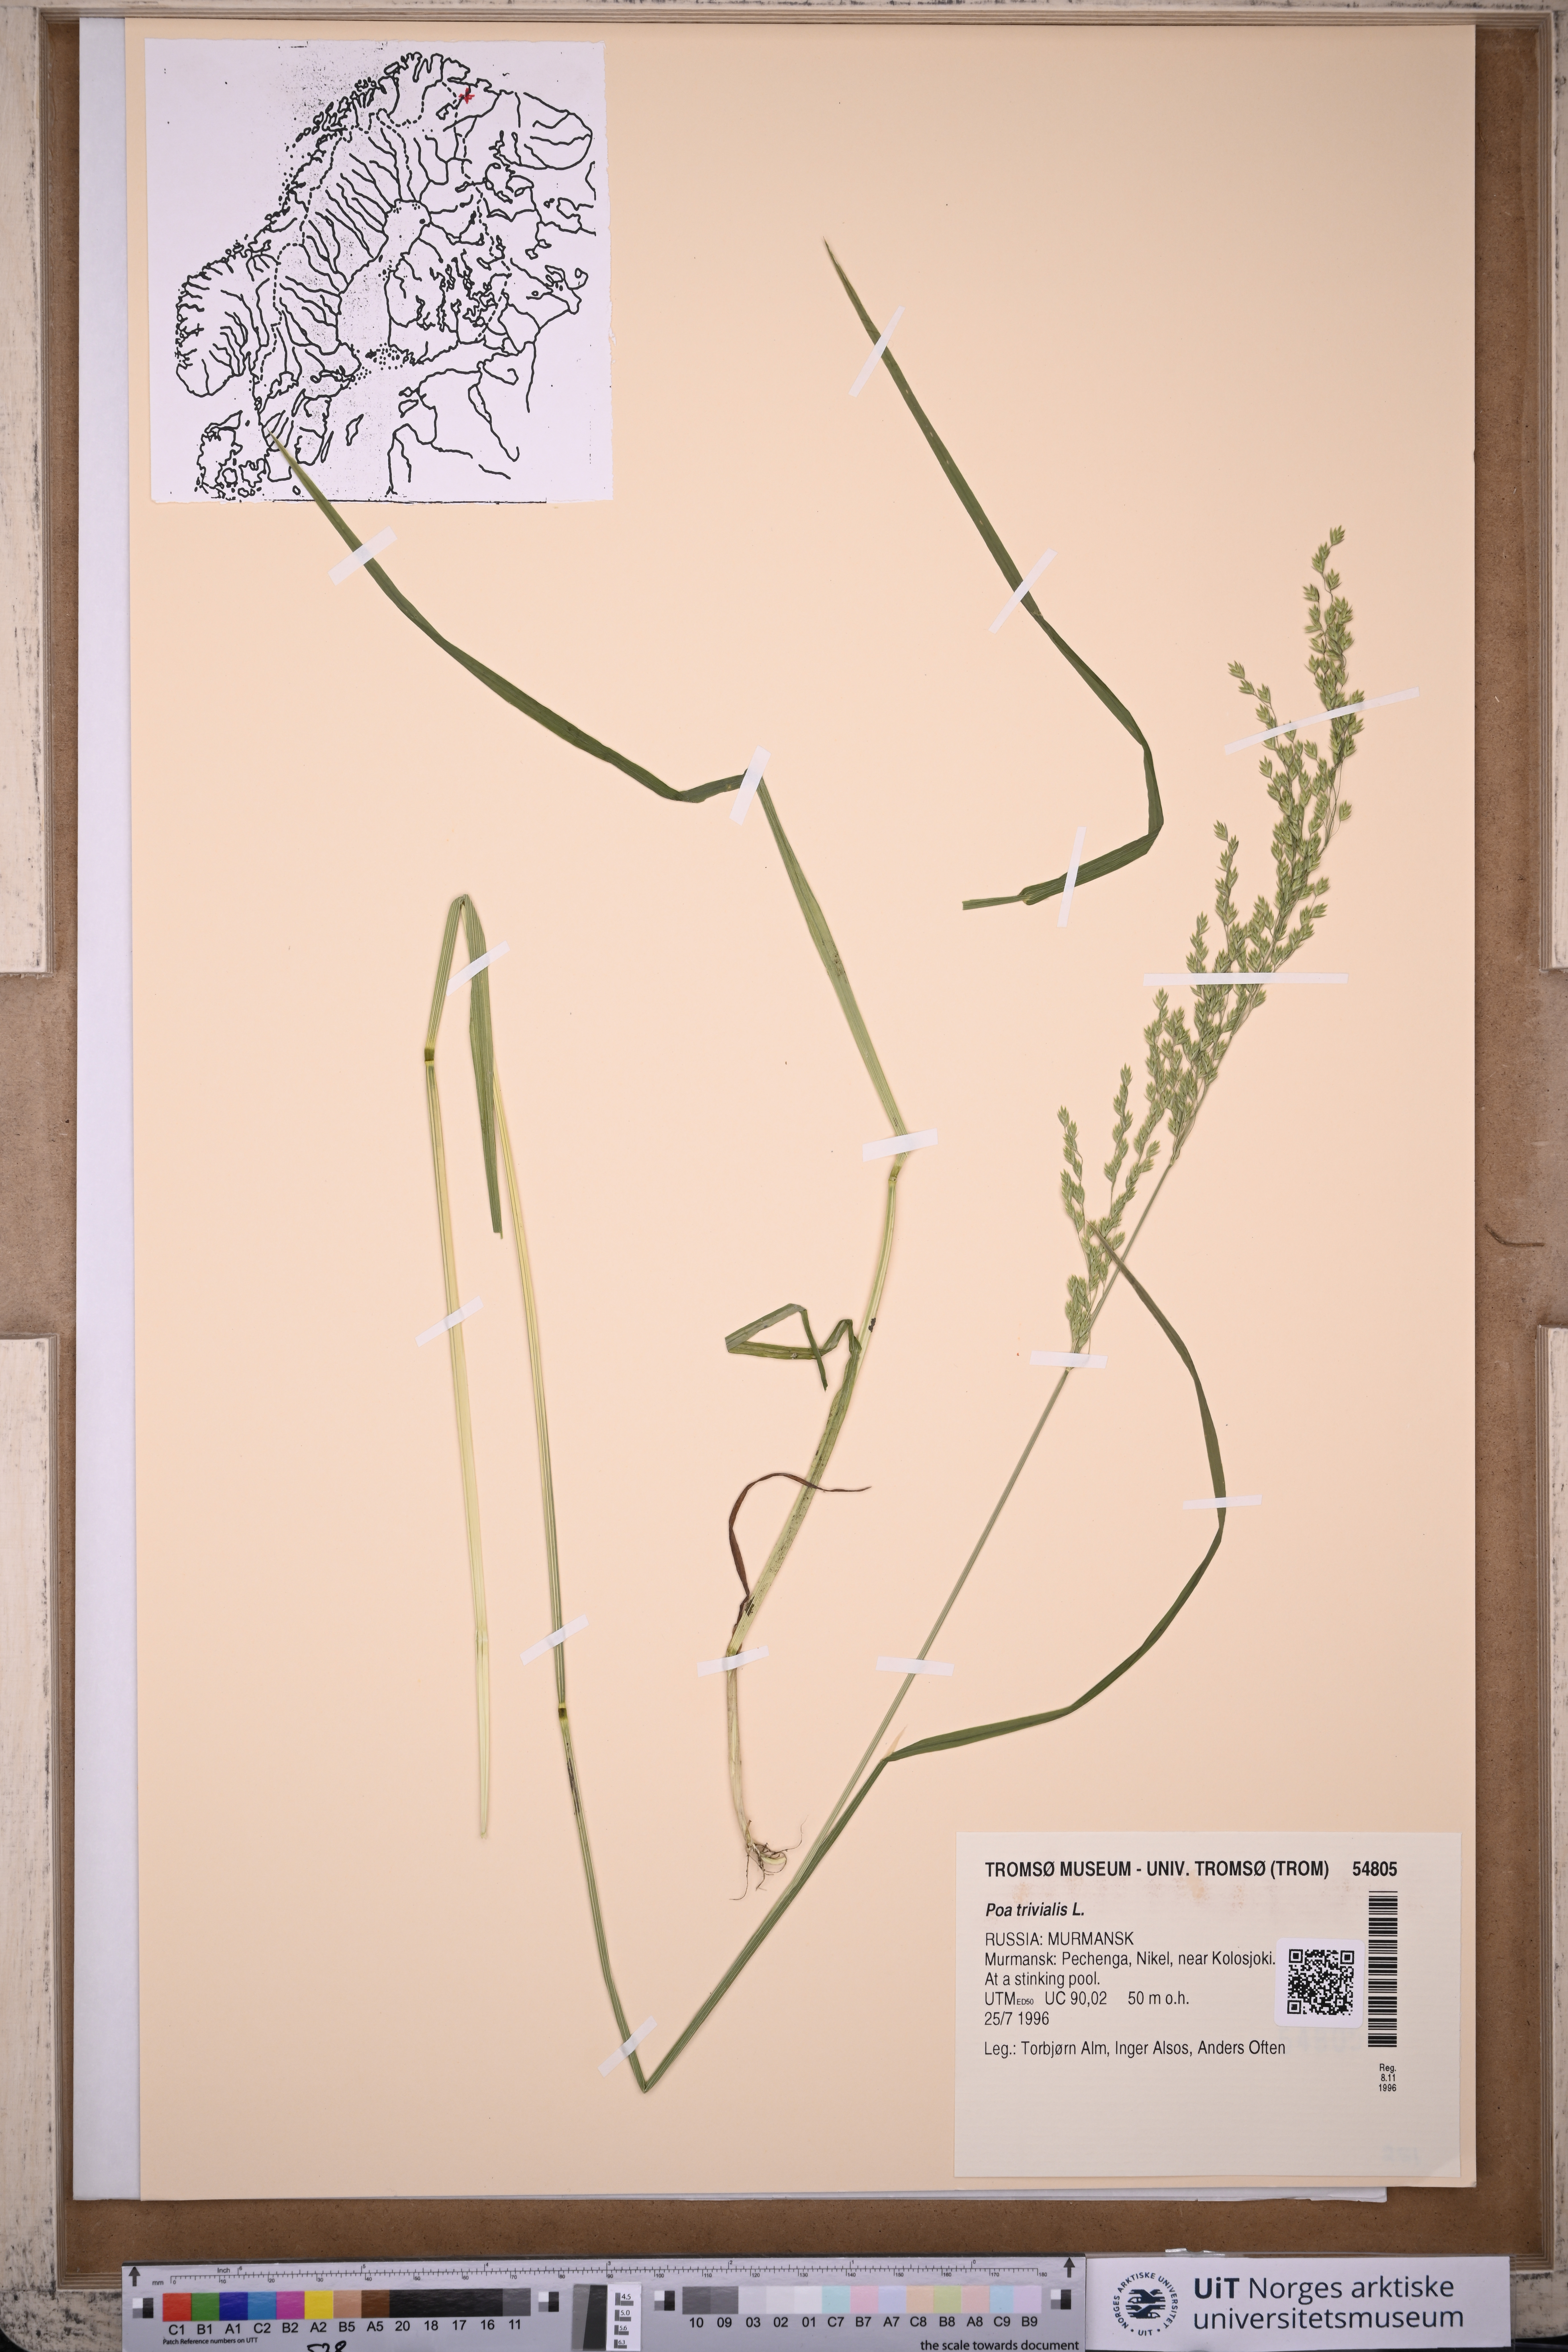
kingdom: Plantae
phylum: Tracheophyta
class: Liliopsida
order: Poales
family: Poaceae
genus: Poa
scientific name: Poa trivialis
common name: Rough bluegrass
